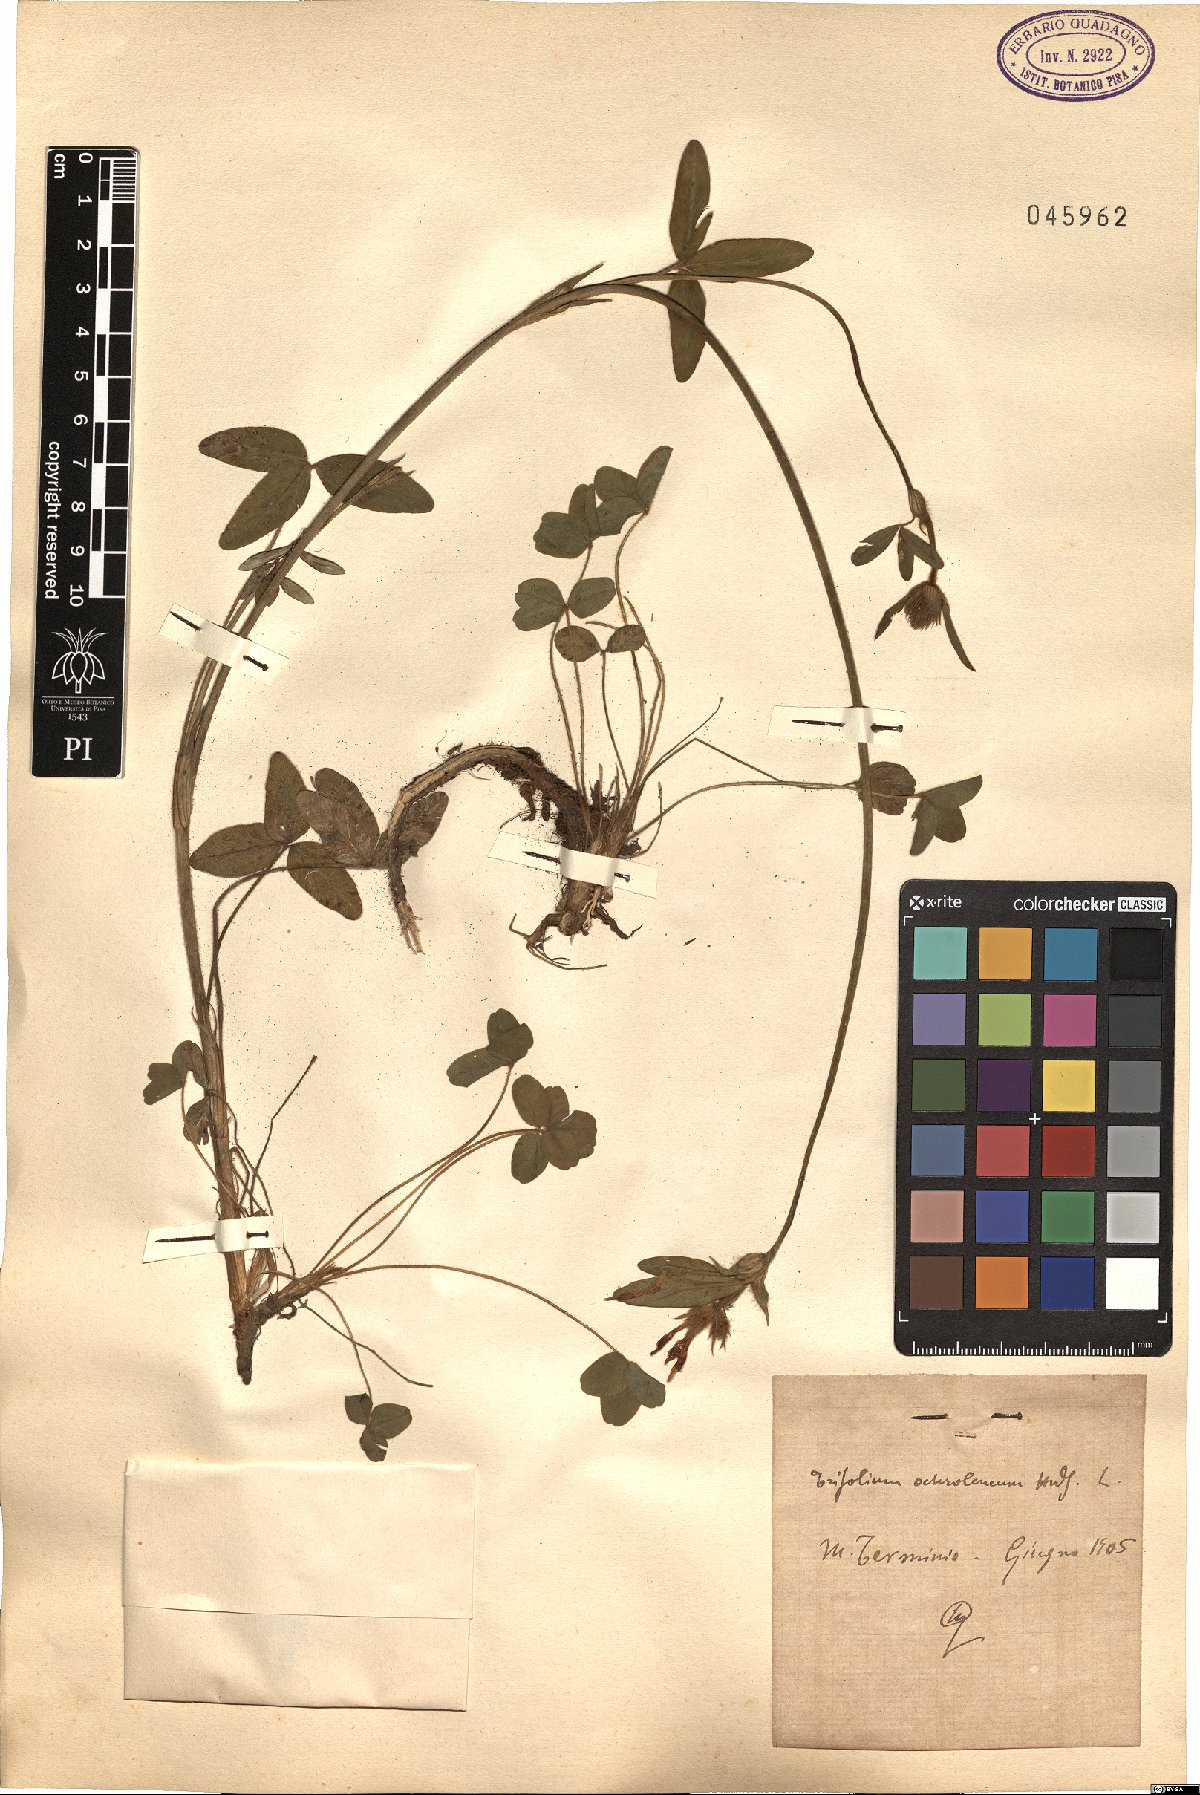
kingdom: Plantae
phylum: Tracheophyta
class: Magnoliopsida
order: Fabales
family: Fabaceae
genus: Trifolium
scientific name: Trifolium ochroleucon
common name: Sulphur clover
